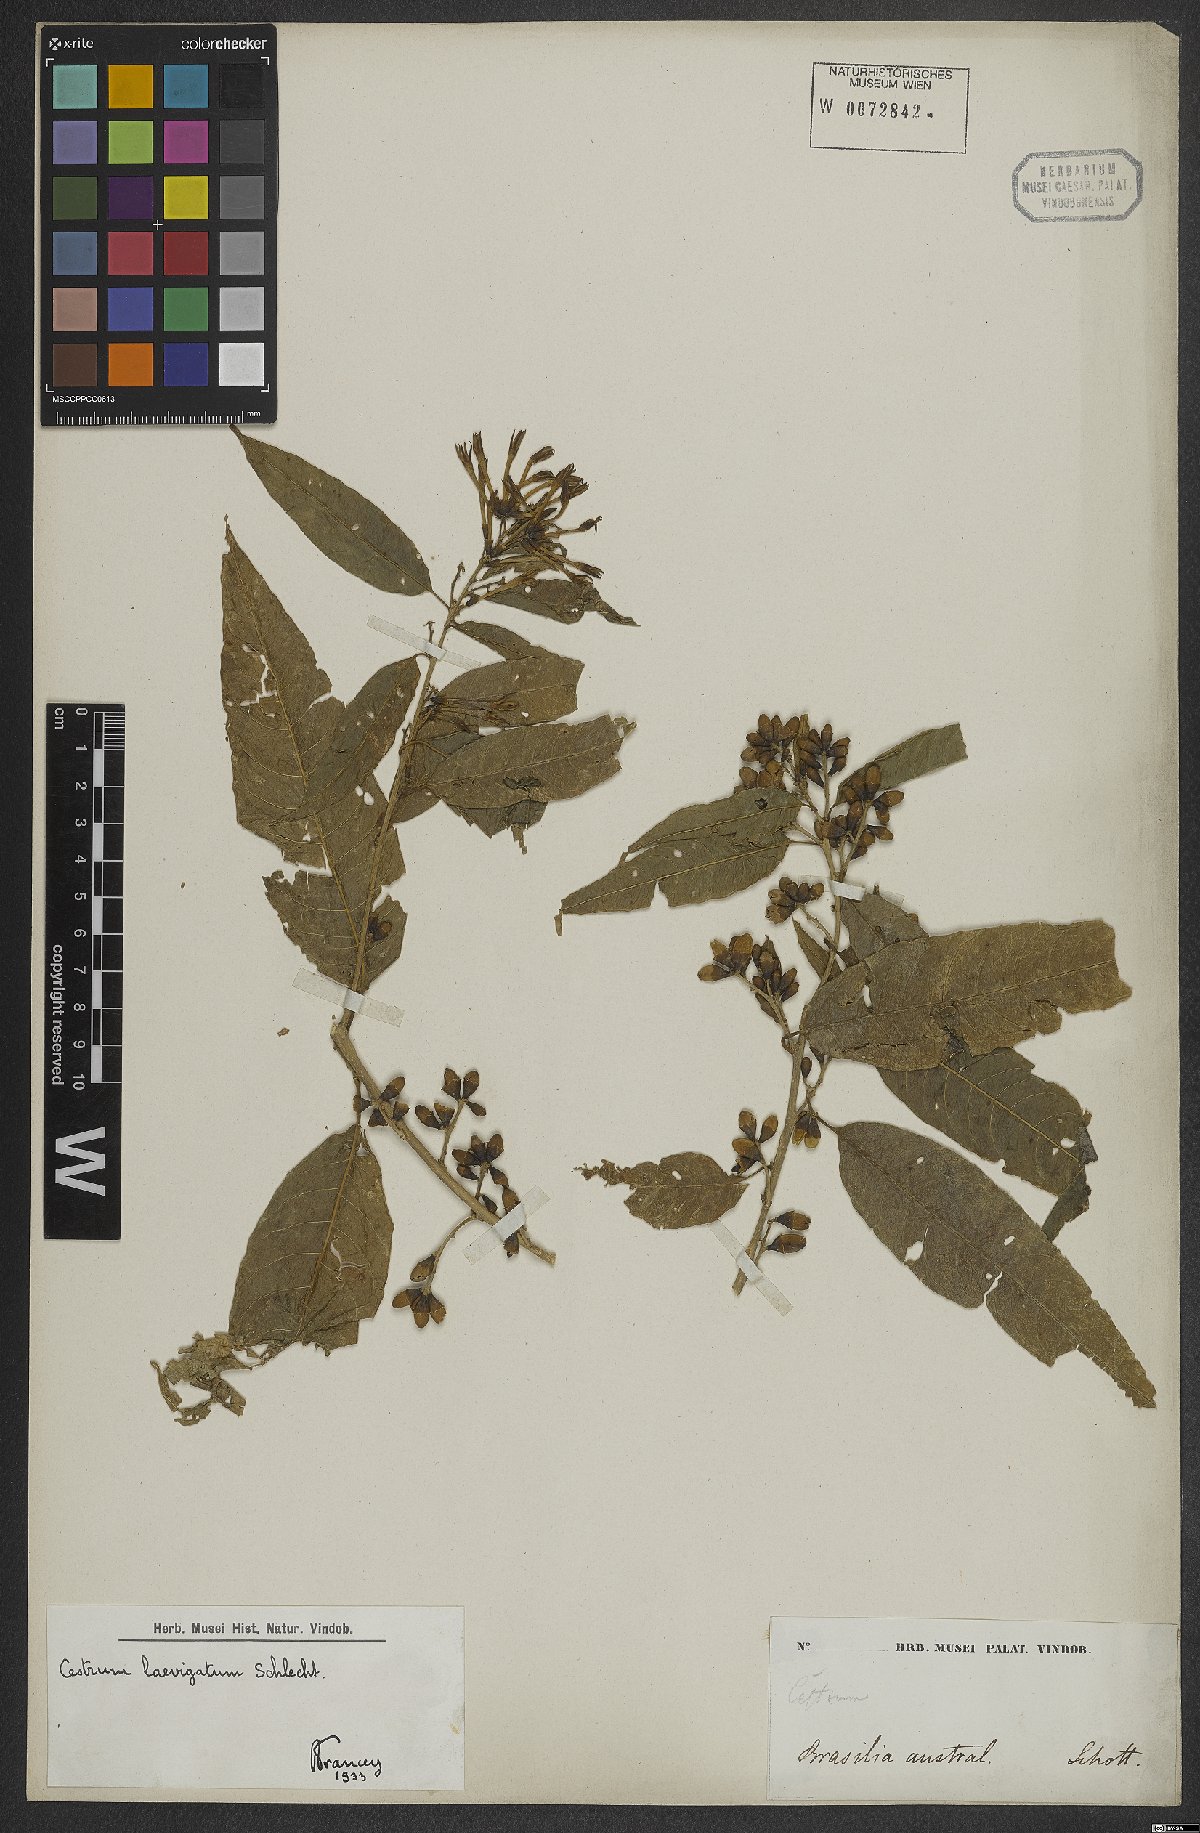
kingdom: Plantae
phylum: Tracheophyta
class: Magnoliopsida
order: Solanales
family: Solanaceae
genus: Cestrum
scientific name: Cestrum laevigatum
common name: Inkberry
